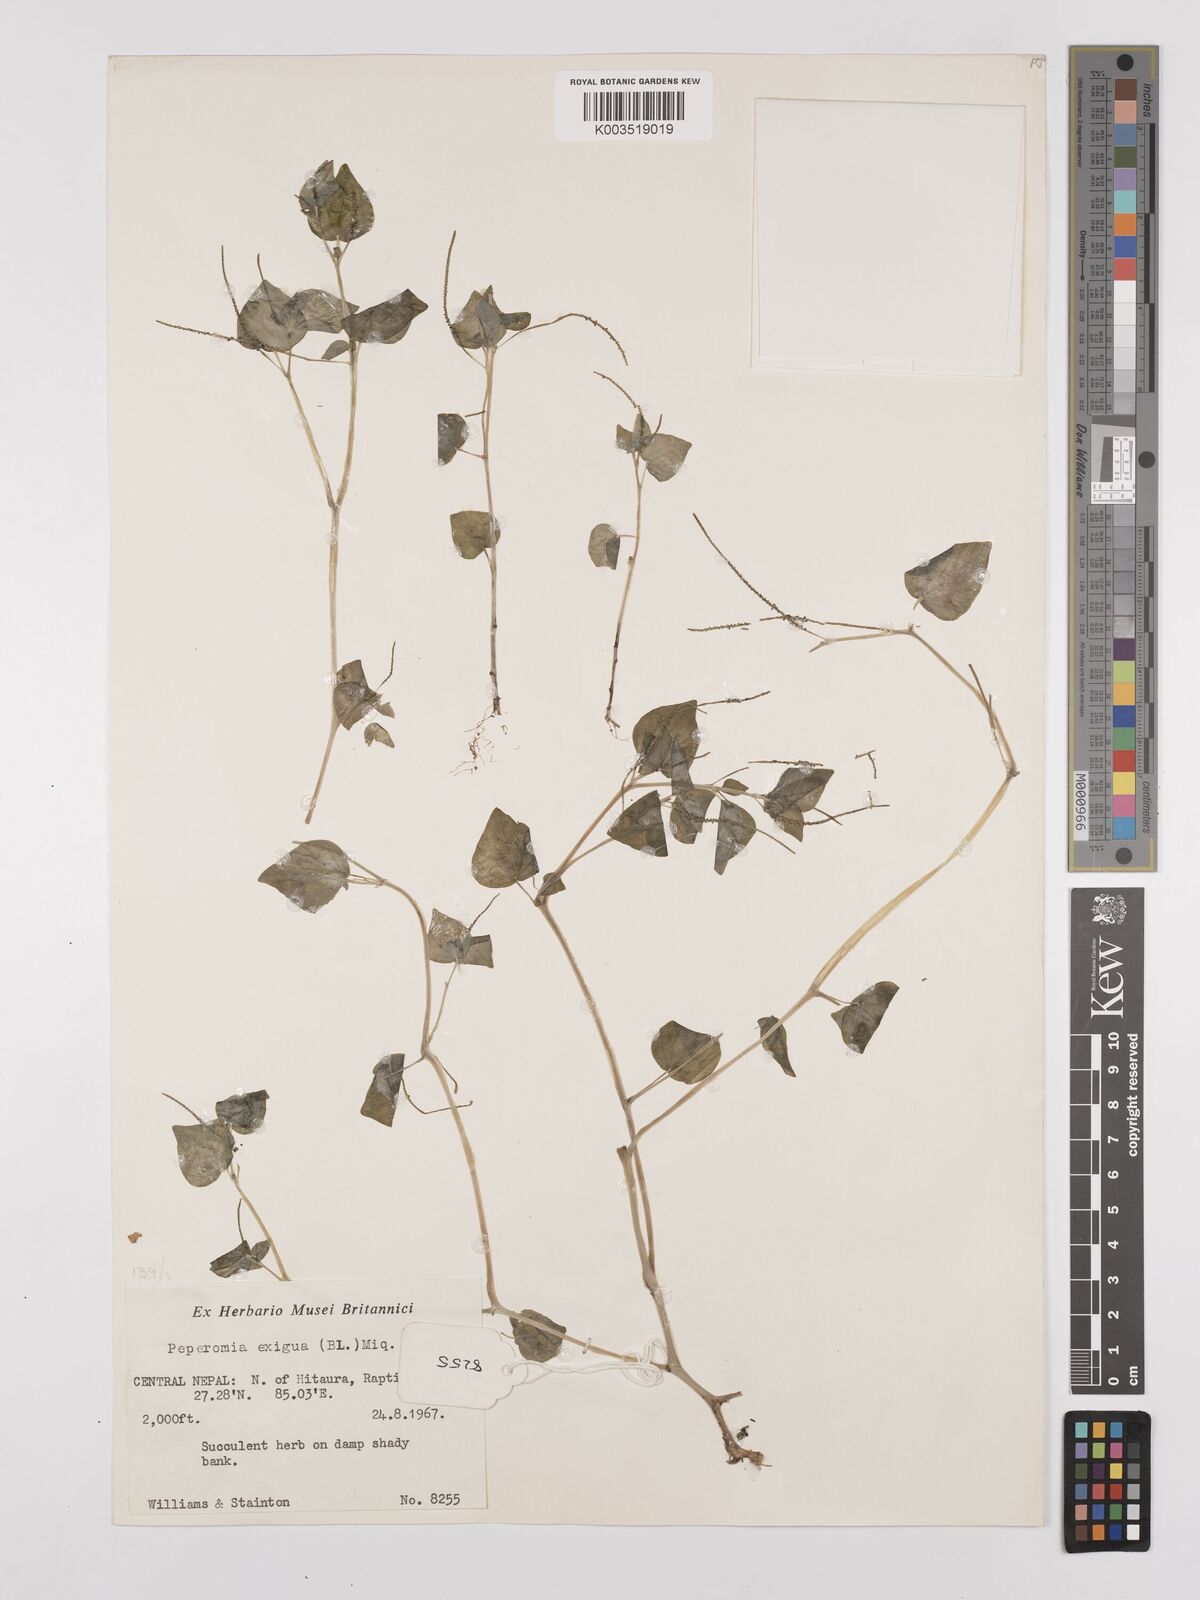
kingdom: Plantae
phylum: Tracheophyta
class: Magnoliopsida
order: Piperales
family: Piperaceae
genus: Peperomia
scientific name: Peperomia pellucida
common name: Man to man
